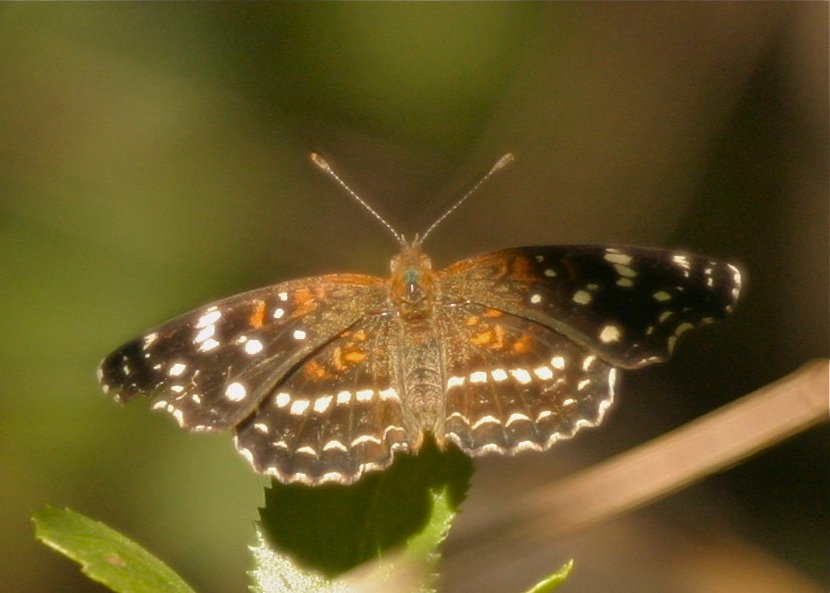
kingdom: Animalia
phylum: Arthropoda
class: Insecta
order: Lepidoptera
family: Nymphalidae
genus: Anthanassa
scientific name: Anthanassa texana
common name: Texan Crescent
